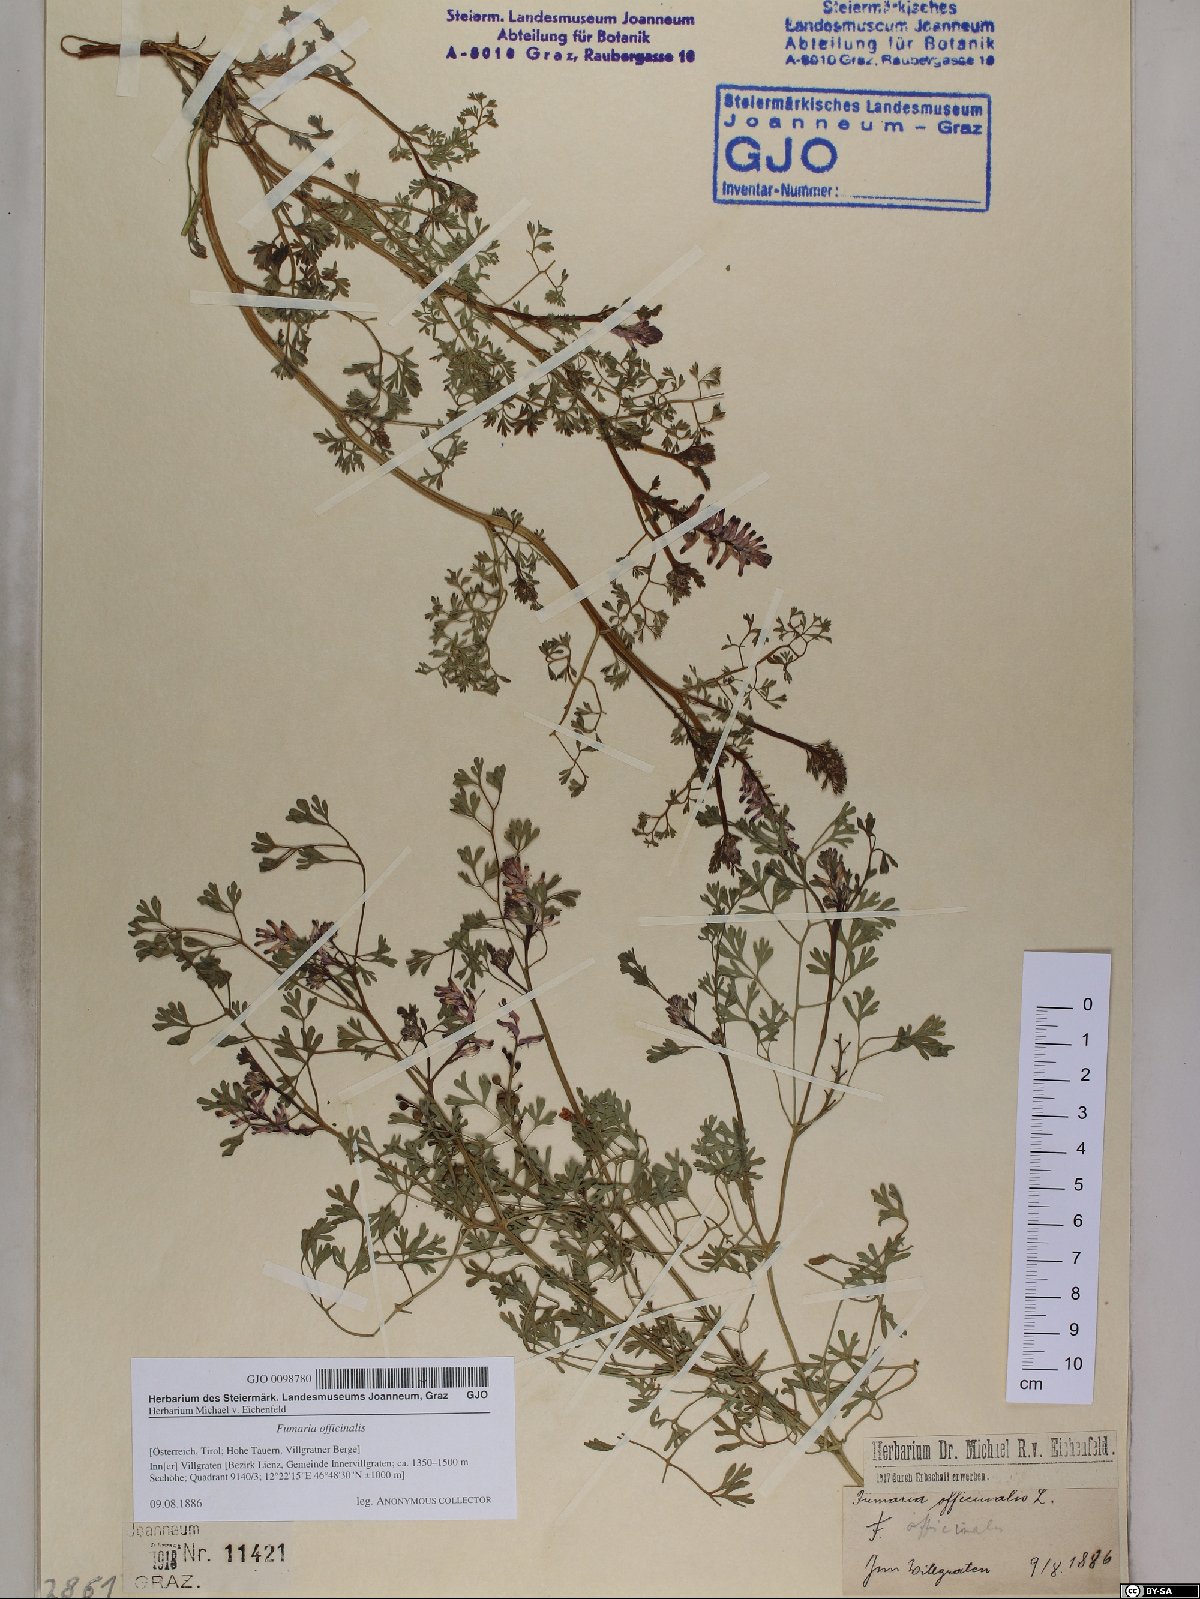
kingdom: Plantae
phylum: Tracheophyta
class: Magnoliopsida
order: Ranunculales
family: Papaveraceae
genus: Fumaria
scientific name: Fumaria officinalis
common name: Common fumitory
